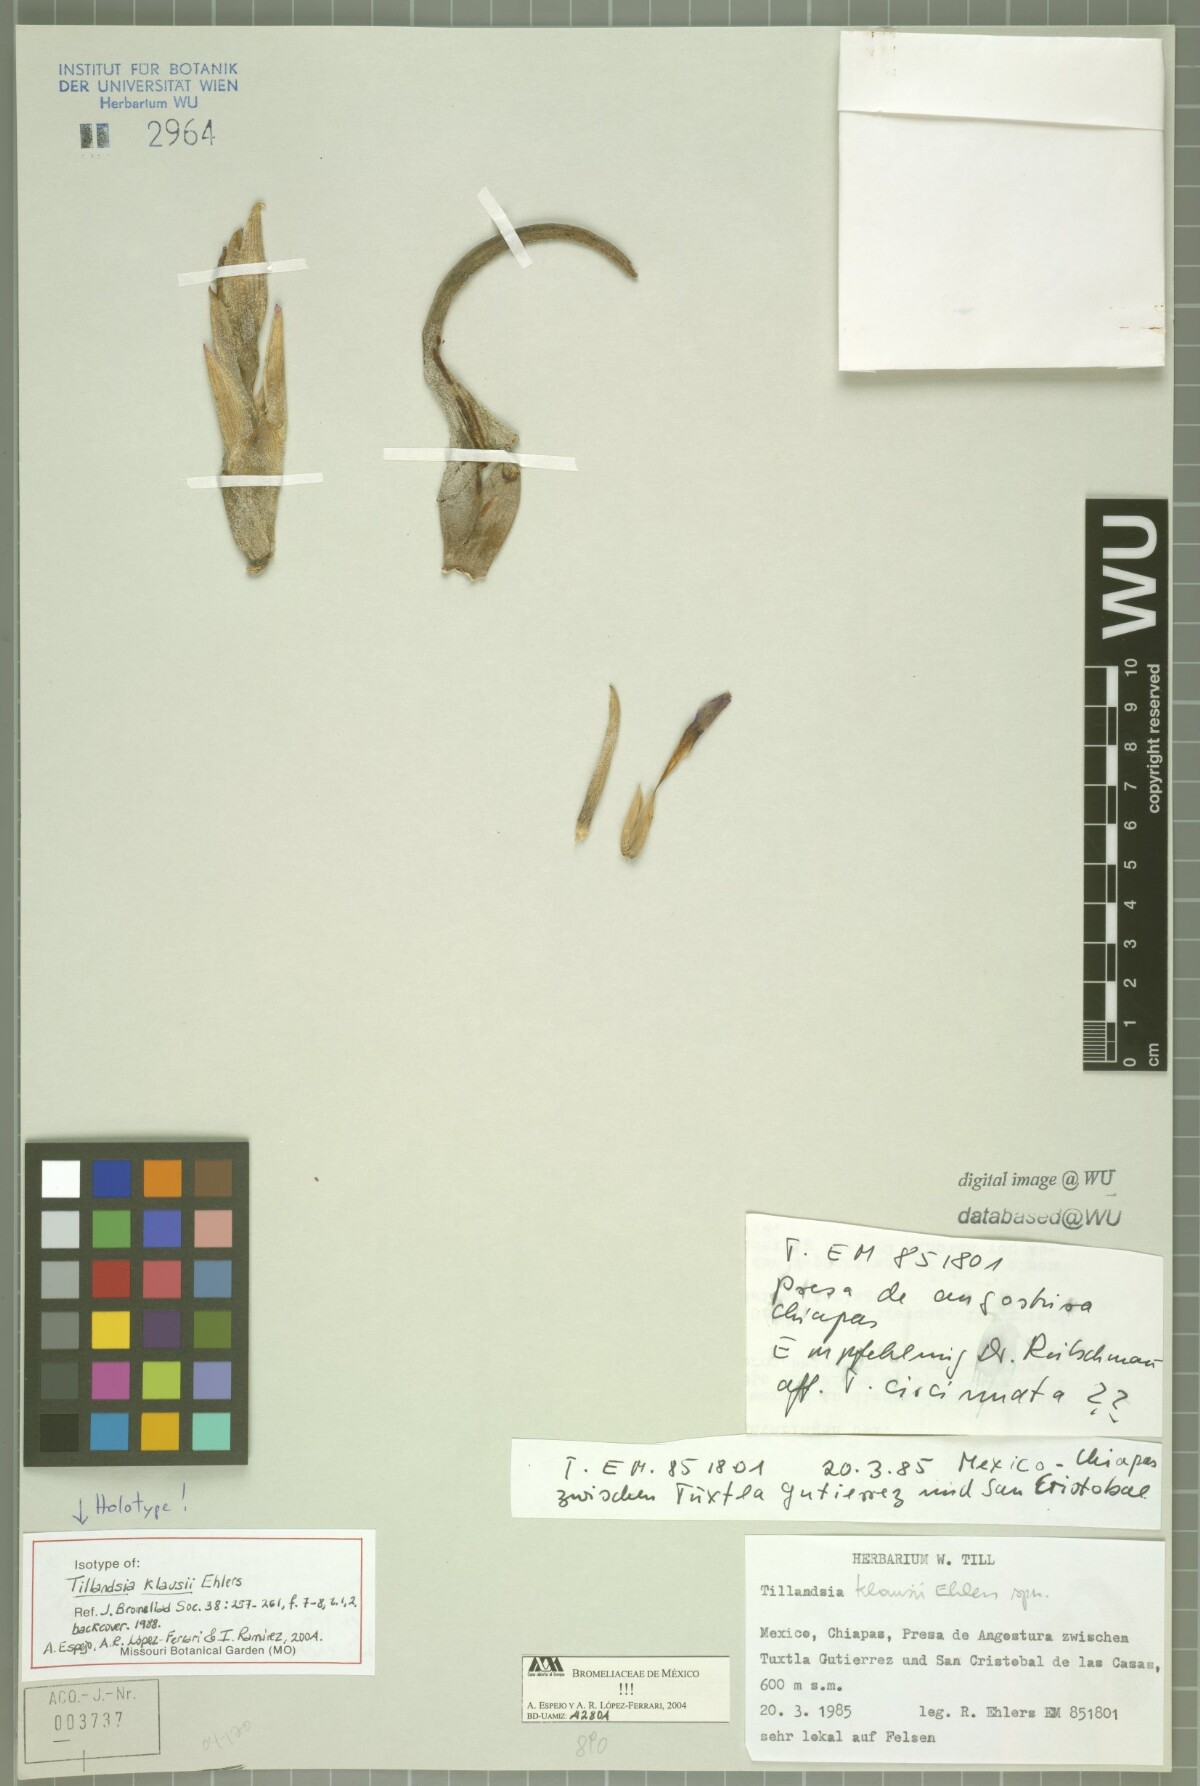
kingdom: Plantae
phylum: Tracheophyta
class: Liliopsida
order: Poales
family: Bromeliaceae
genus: Tillandsia
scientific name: Tillandsia klausii
